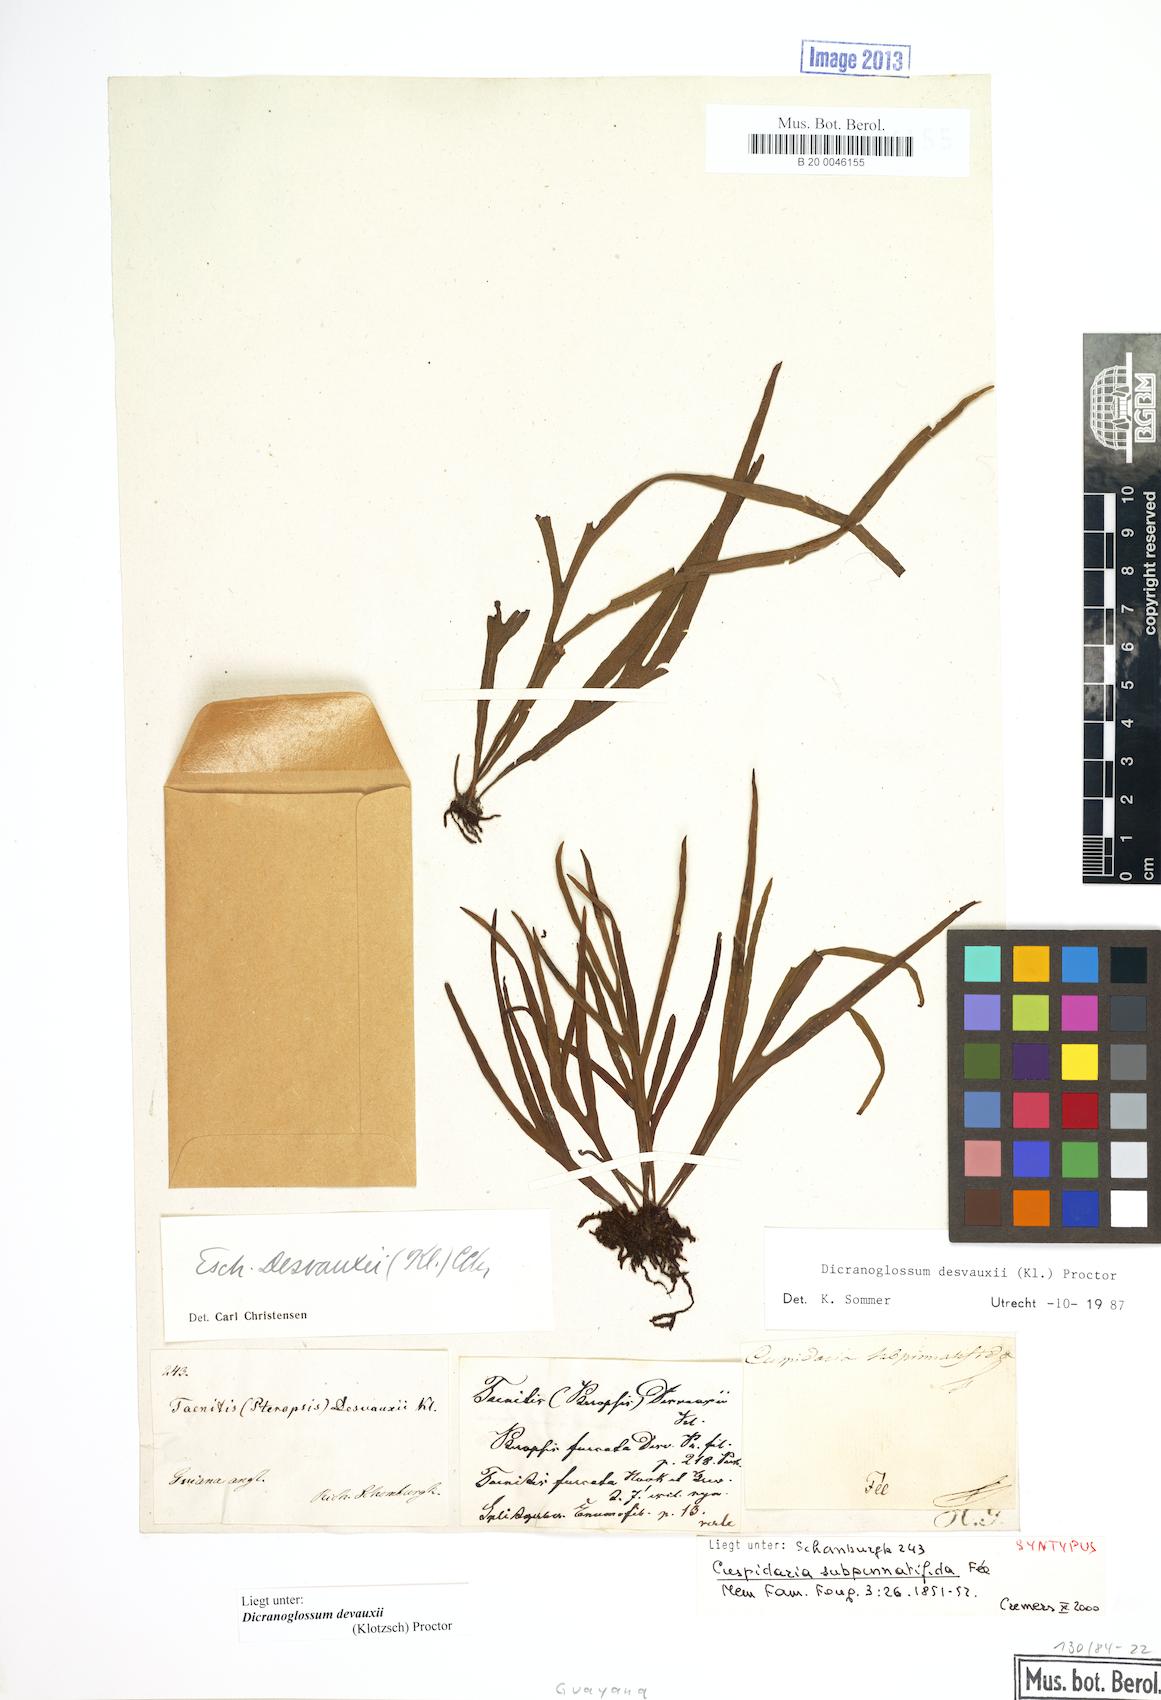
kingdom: Plantae
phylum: Tracheophyta
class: Polypodiopsida
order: Polypodiales
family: Polypodiaceae
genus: Pleopeltis
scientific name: Pleopeltis desvauxii
